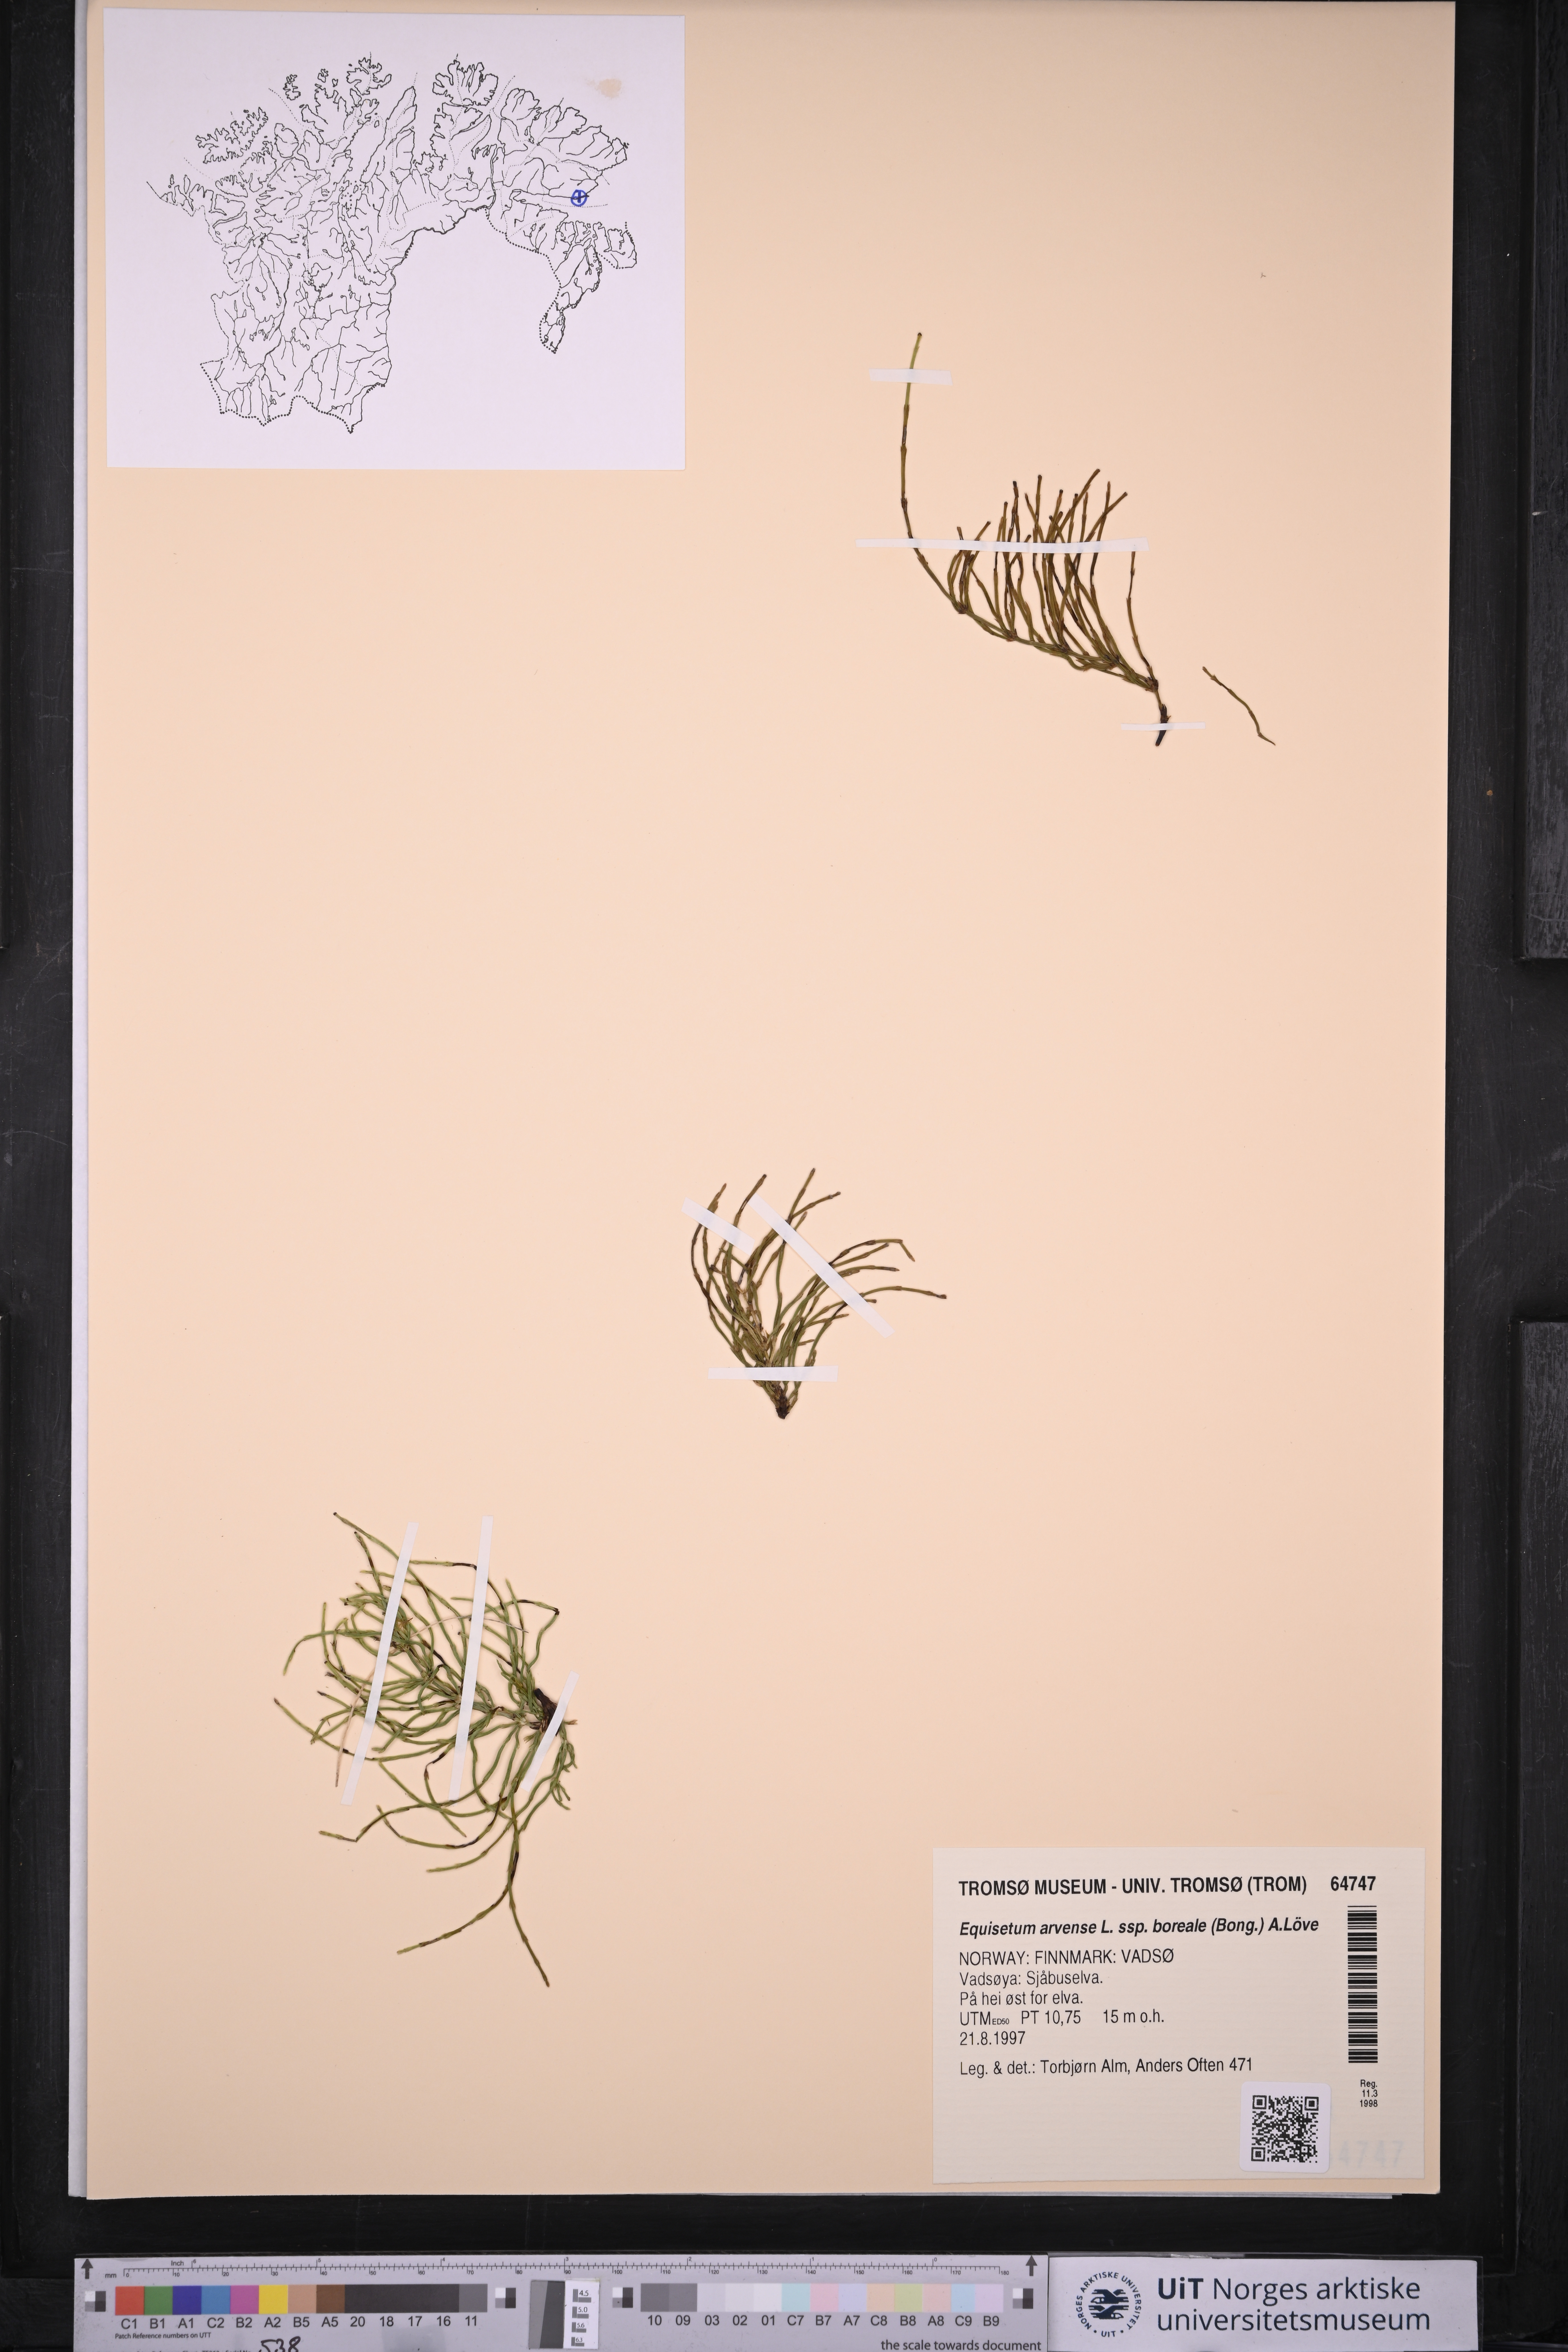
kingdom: Plantae
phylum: Tracheophyta
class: Polypodiopsida
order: Equisetales
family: Equisetaceae
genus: Equisetum
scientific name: Equisetum arvense
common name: Field horsetail
